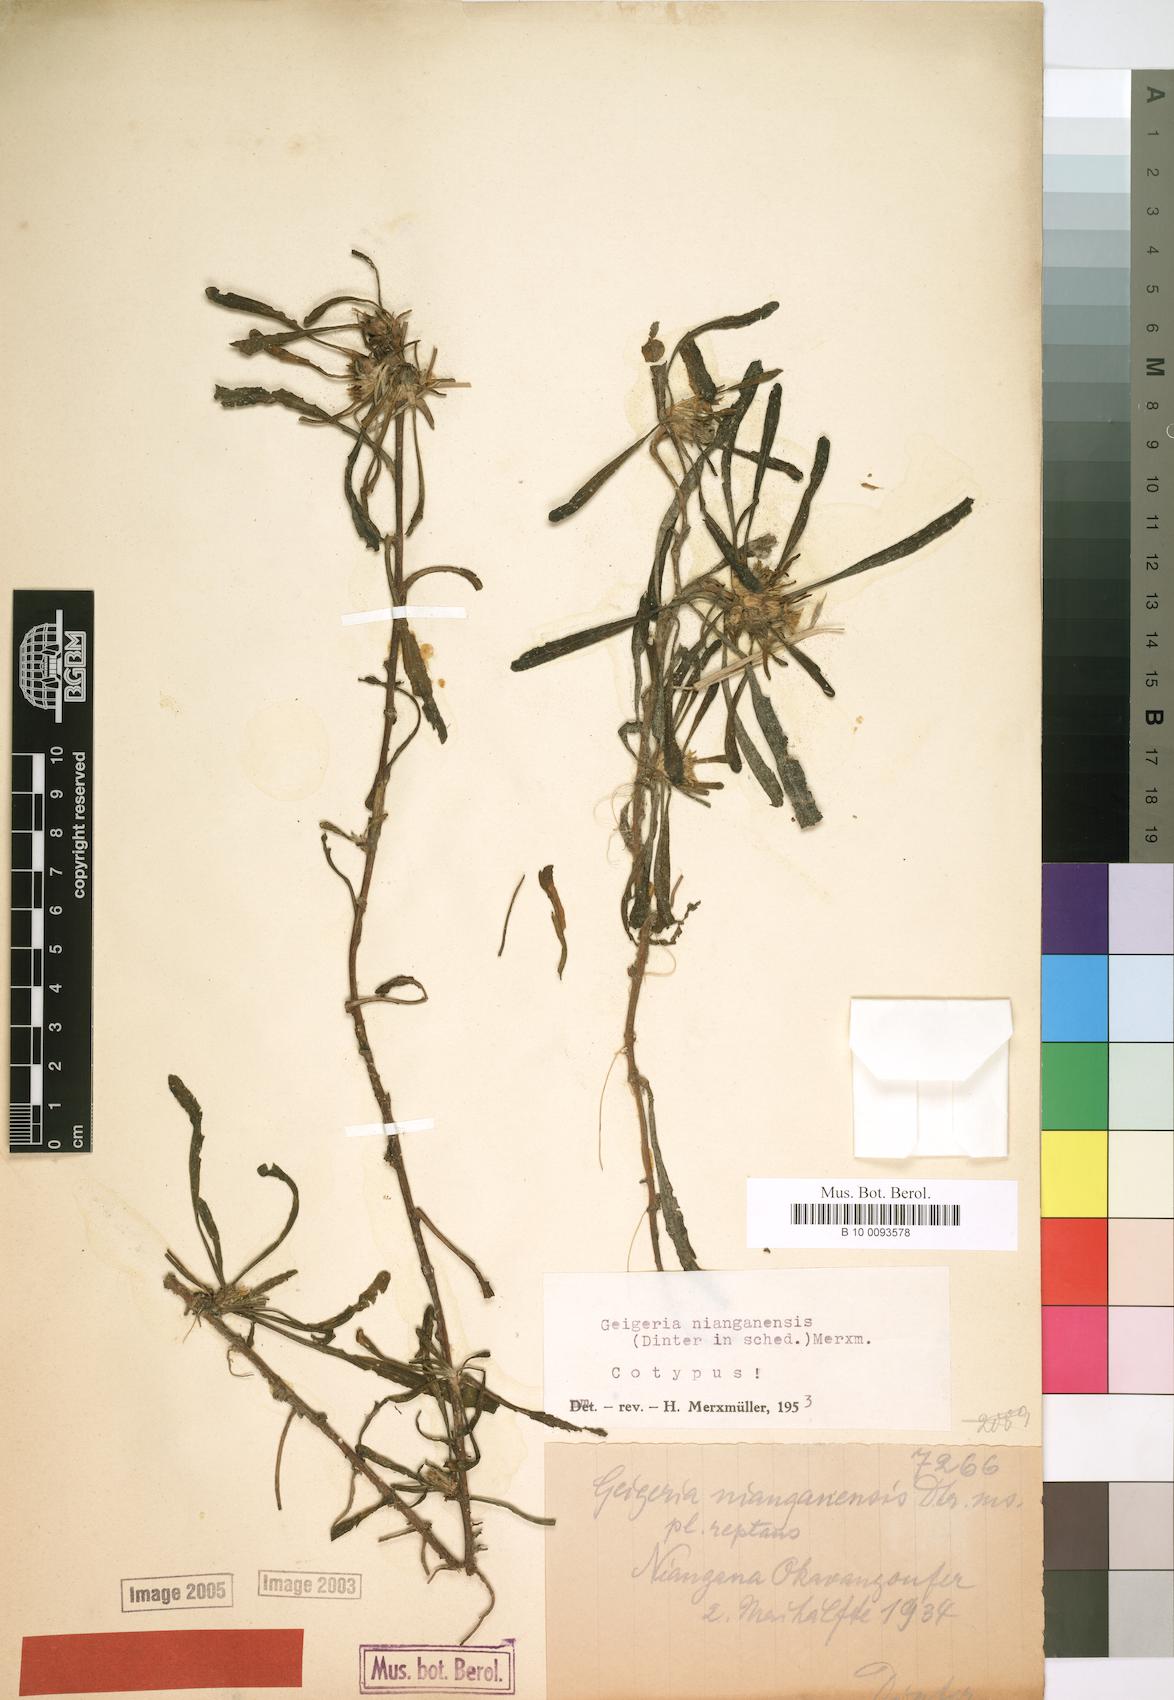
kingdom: Plantae
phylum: Tracheophyta
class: Magnoliopsida
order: Asterales
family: Asteraceae
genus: Geigeria
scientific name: Geigeria nianganensis
